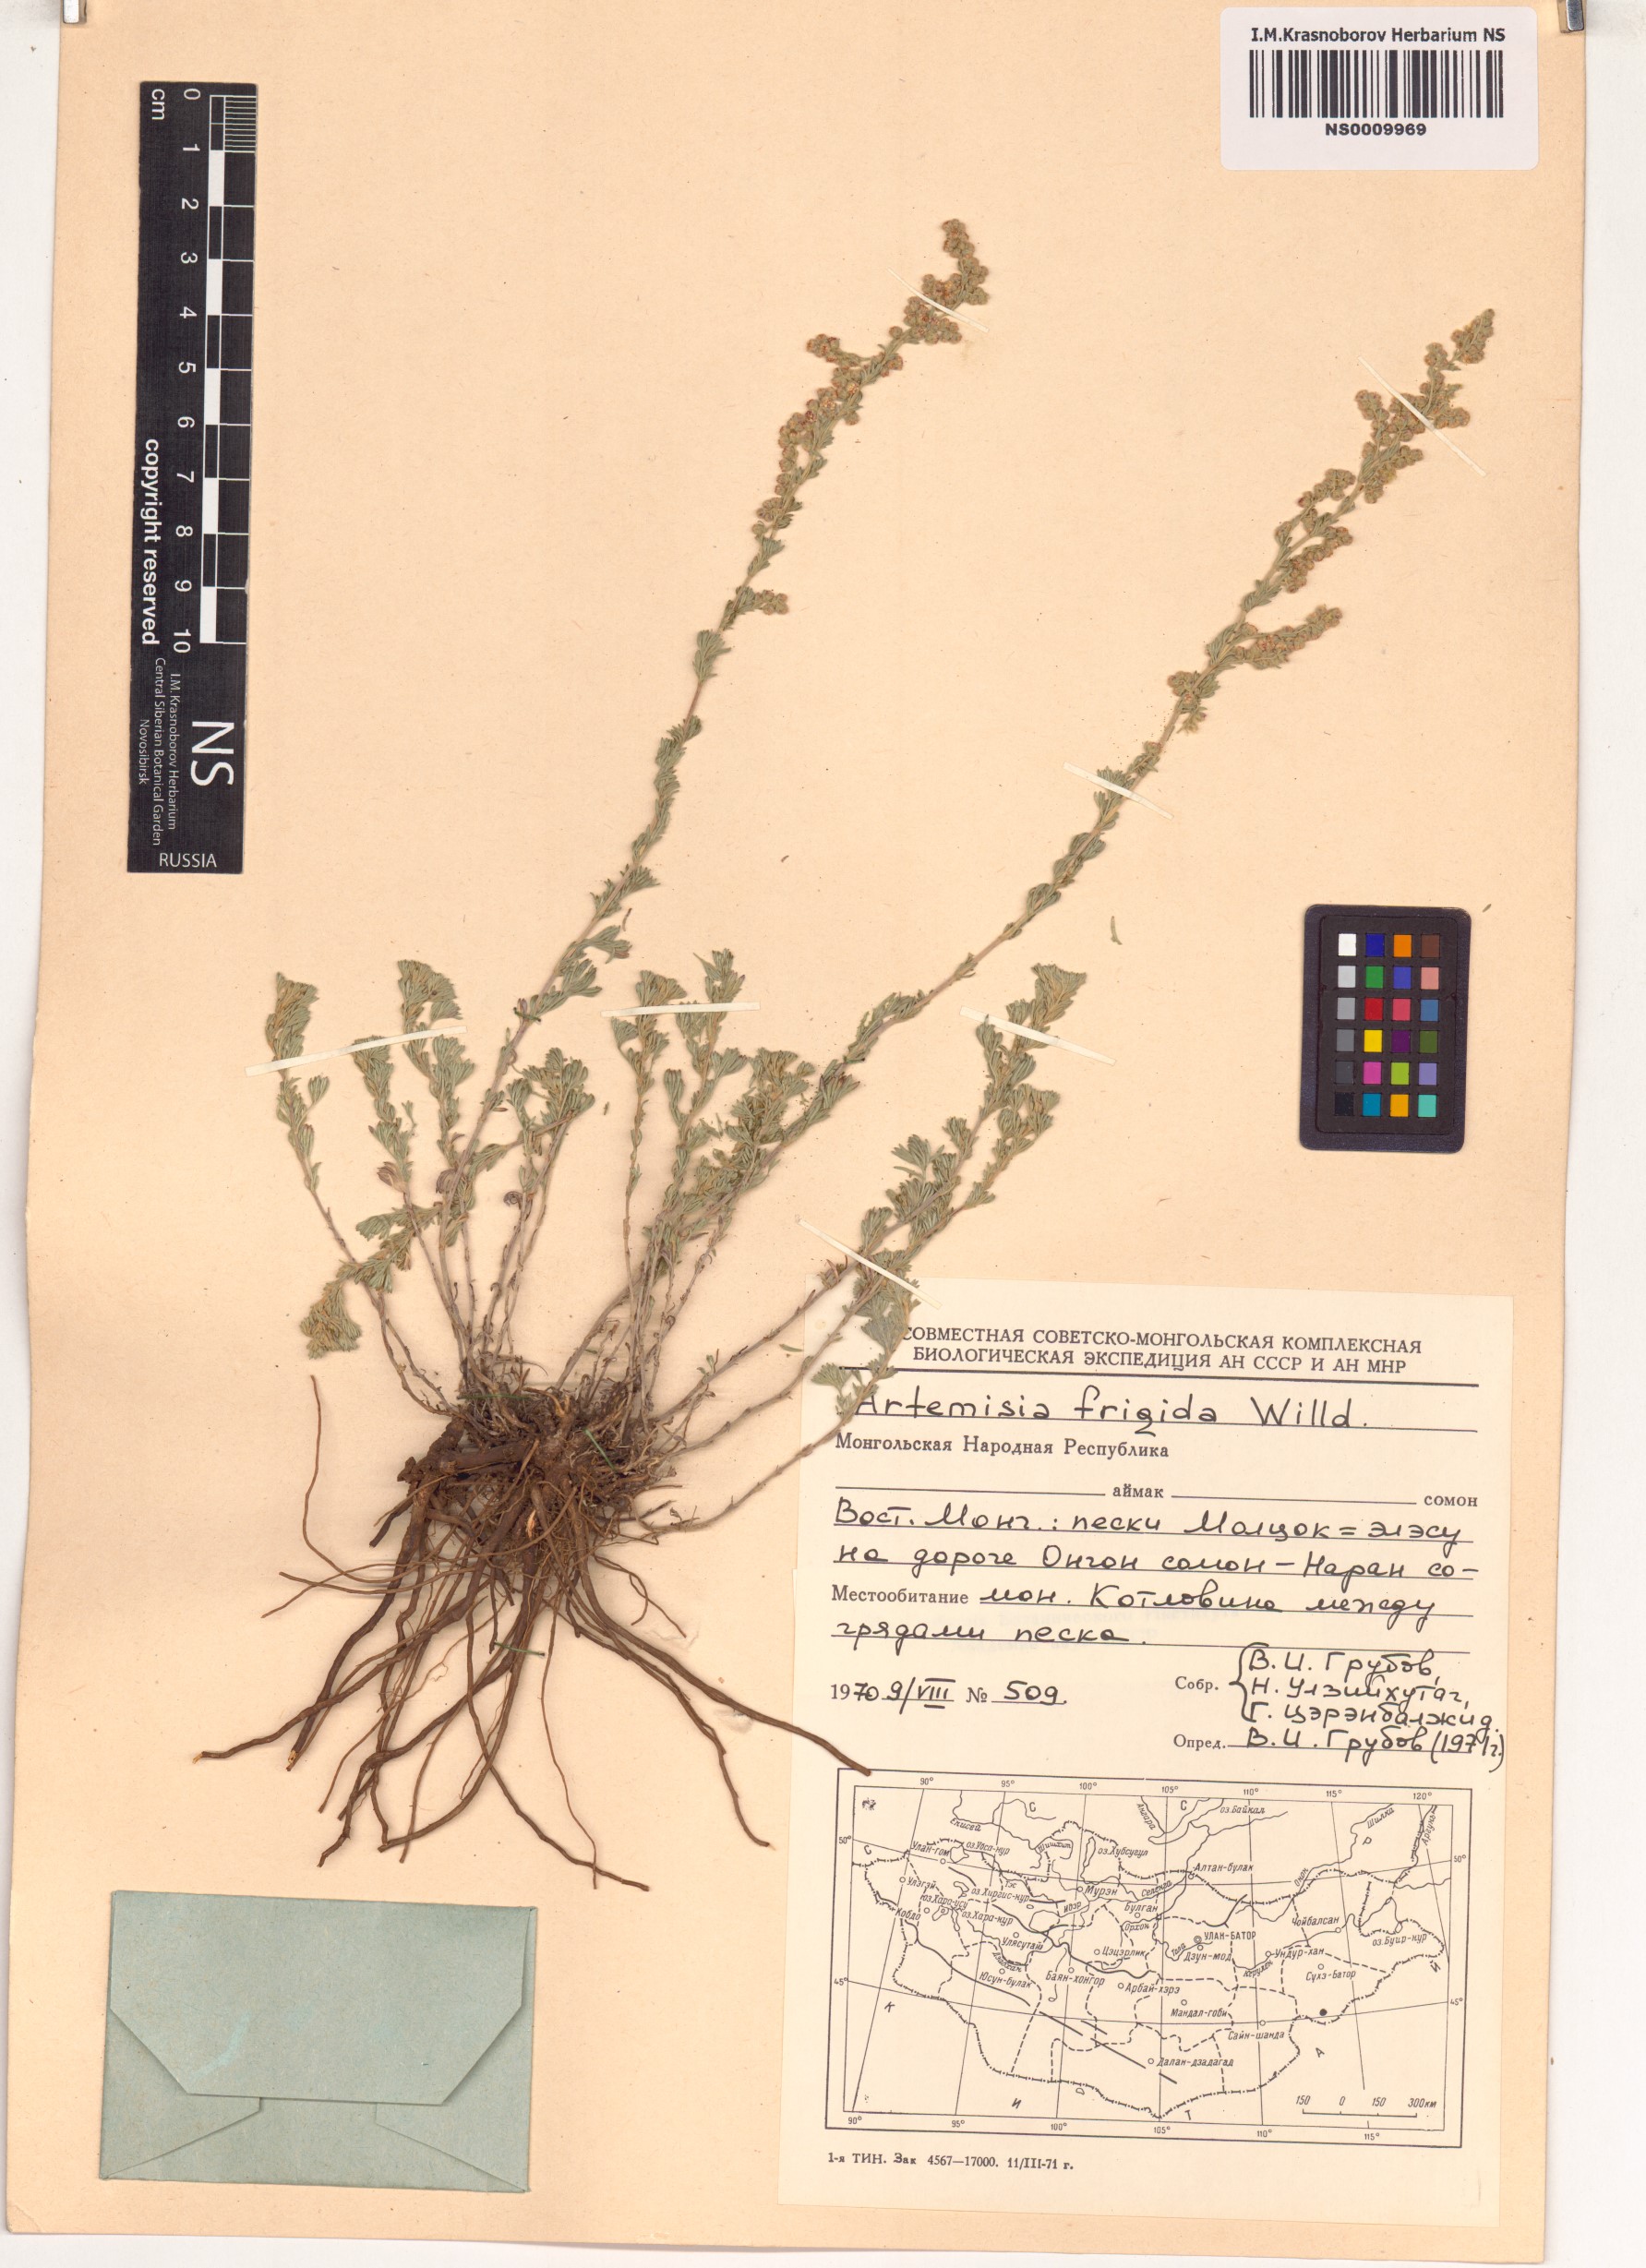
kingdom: Plantae
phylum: Tracheophyta
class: Magnoliopsida
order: Asterales
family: Asteraceae
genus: Artemisia
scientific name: Artemisia frigida
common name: Prairie sagewort
